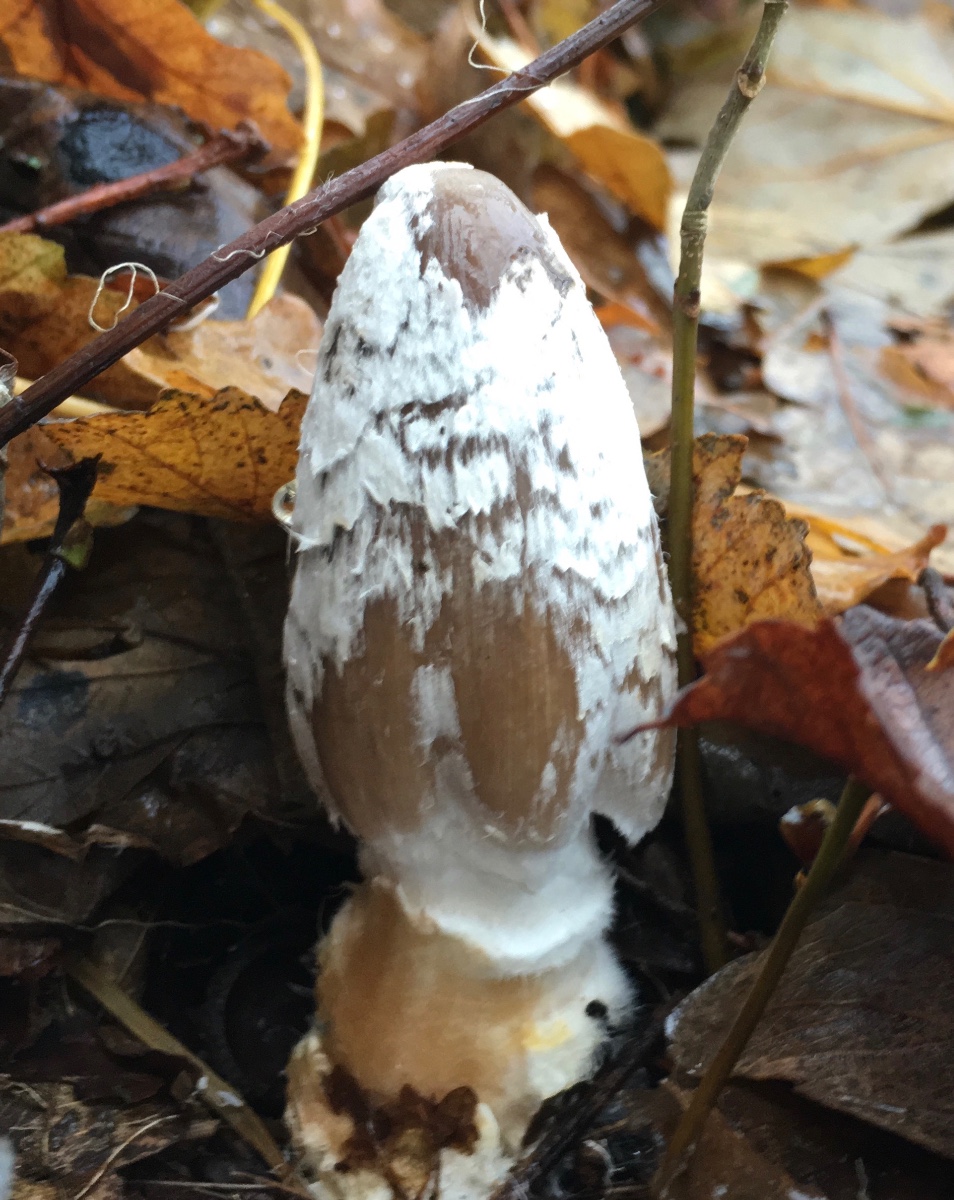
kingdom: Fungi
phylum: Basidiomycota
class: Agaricomycetes
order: Agaricales
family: Psathyrellaceae
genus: Coprinopsis
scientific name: Coprinopsis picacea
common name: skade-blækhat
